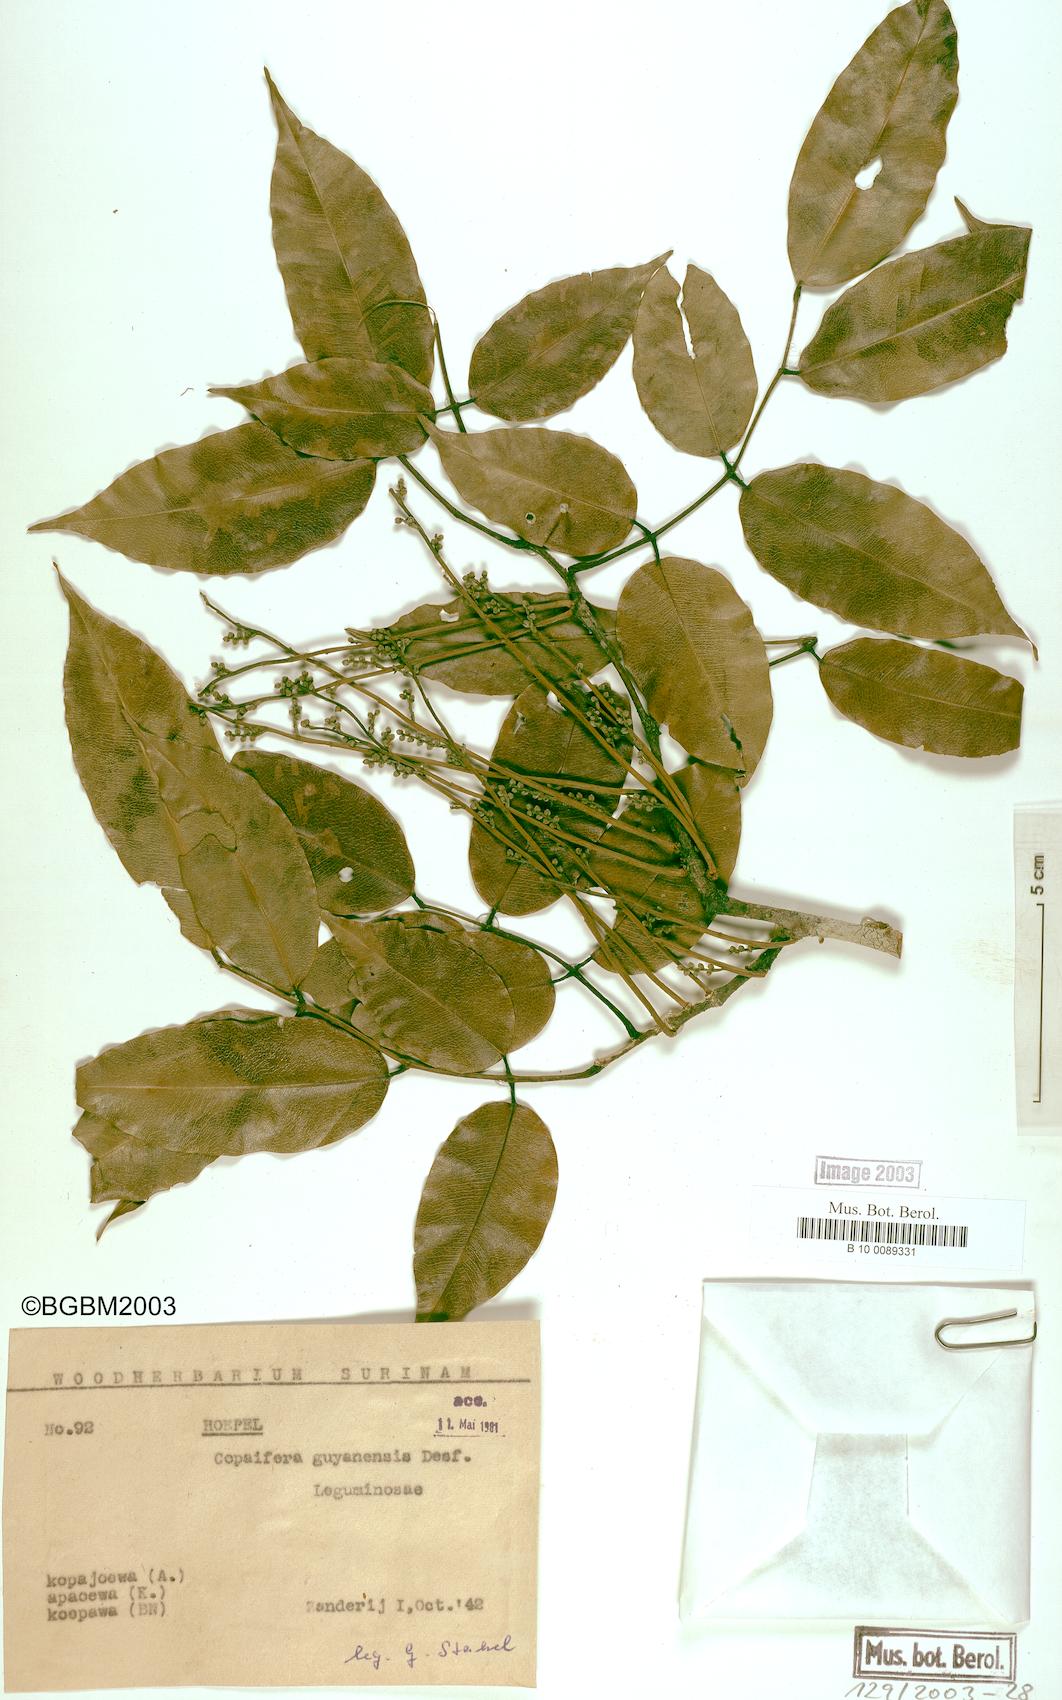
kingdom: Plantae
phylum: Tracheophyta
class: Magnoliopsida
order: Fabales
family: Fabaceae
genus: Copaifera
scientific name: Copaifera guianensis
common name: Copaiba
